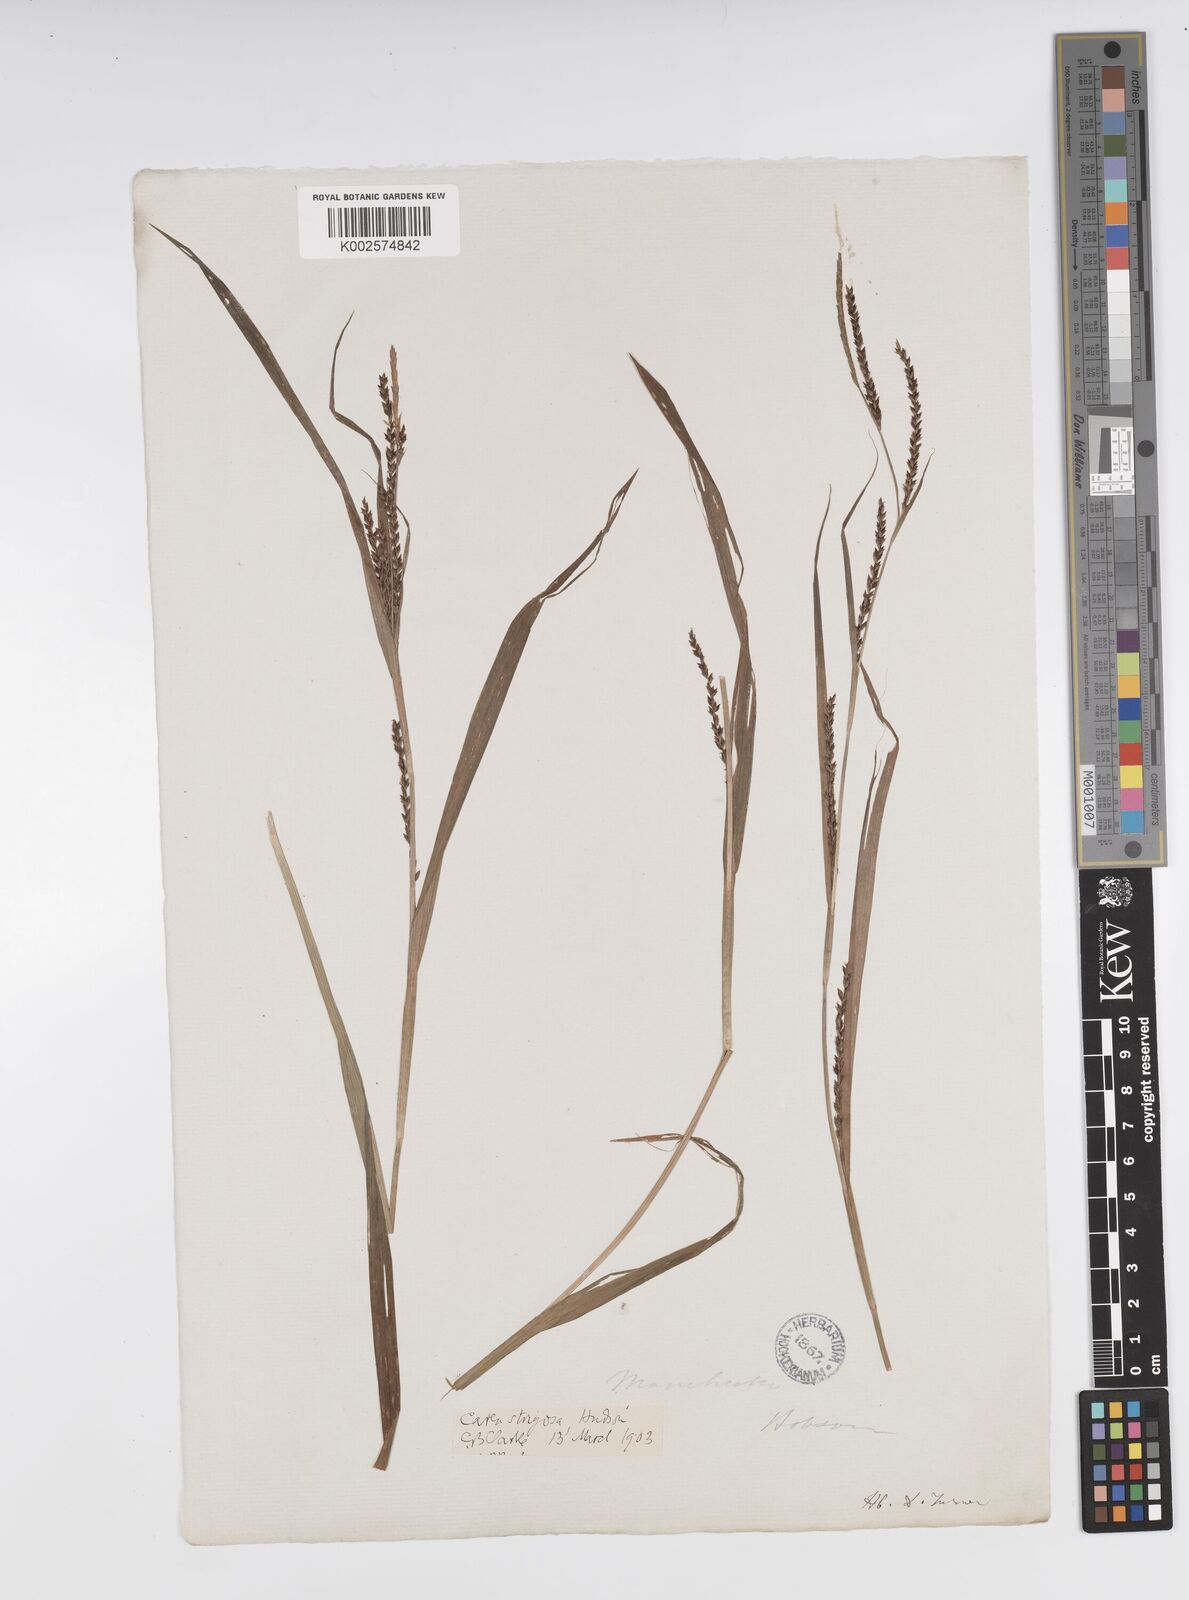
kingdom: Plantae
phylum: Tracheophyta
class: Liliopsida
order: Poales
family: Cyperaceae
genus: Carex
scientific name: Carex strigosa
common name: Thin-spiked wood-sedge
